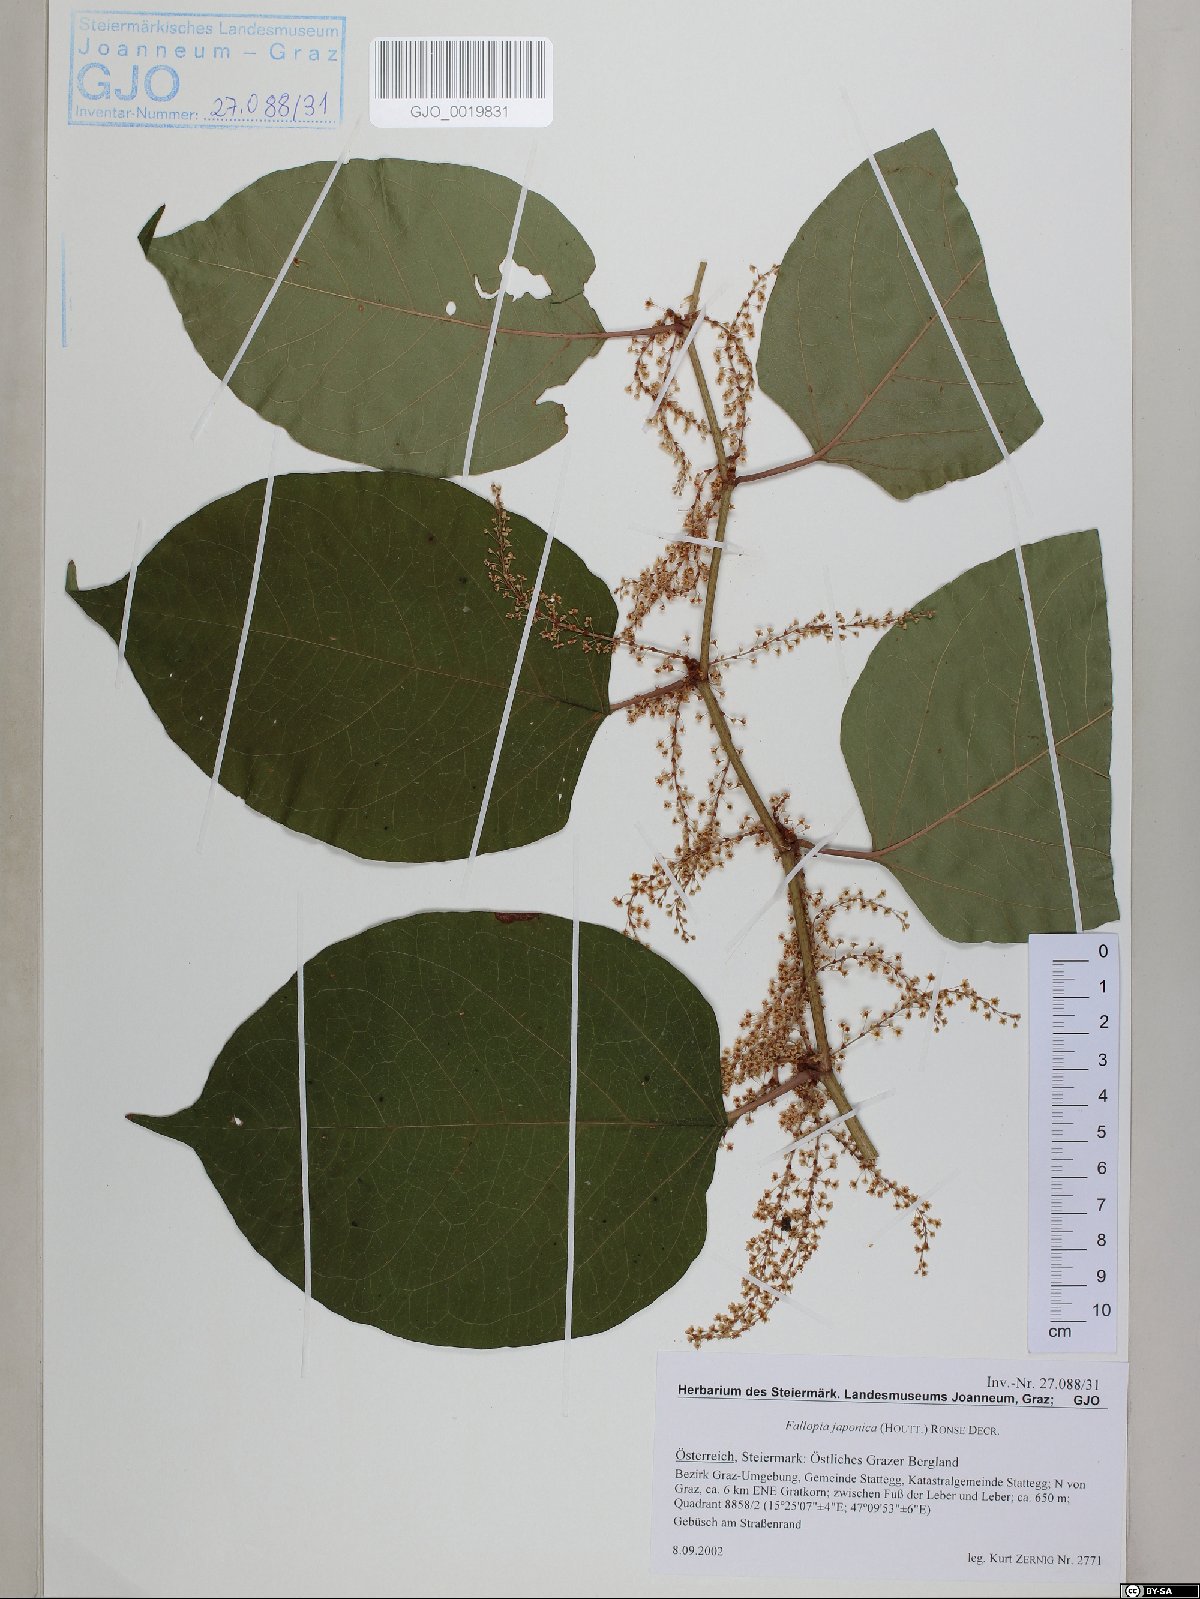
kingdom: Plantae
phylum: Tracheophyta
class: Magnoliopsida
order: Caryophyllales
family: Polygonaceae
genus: Reynoutria
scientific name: Reynoutria japonica
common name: Japanese knotweed
